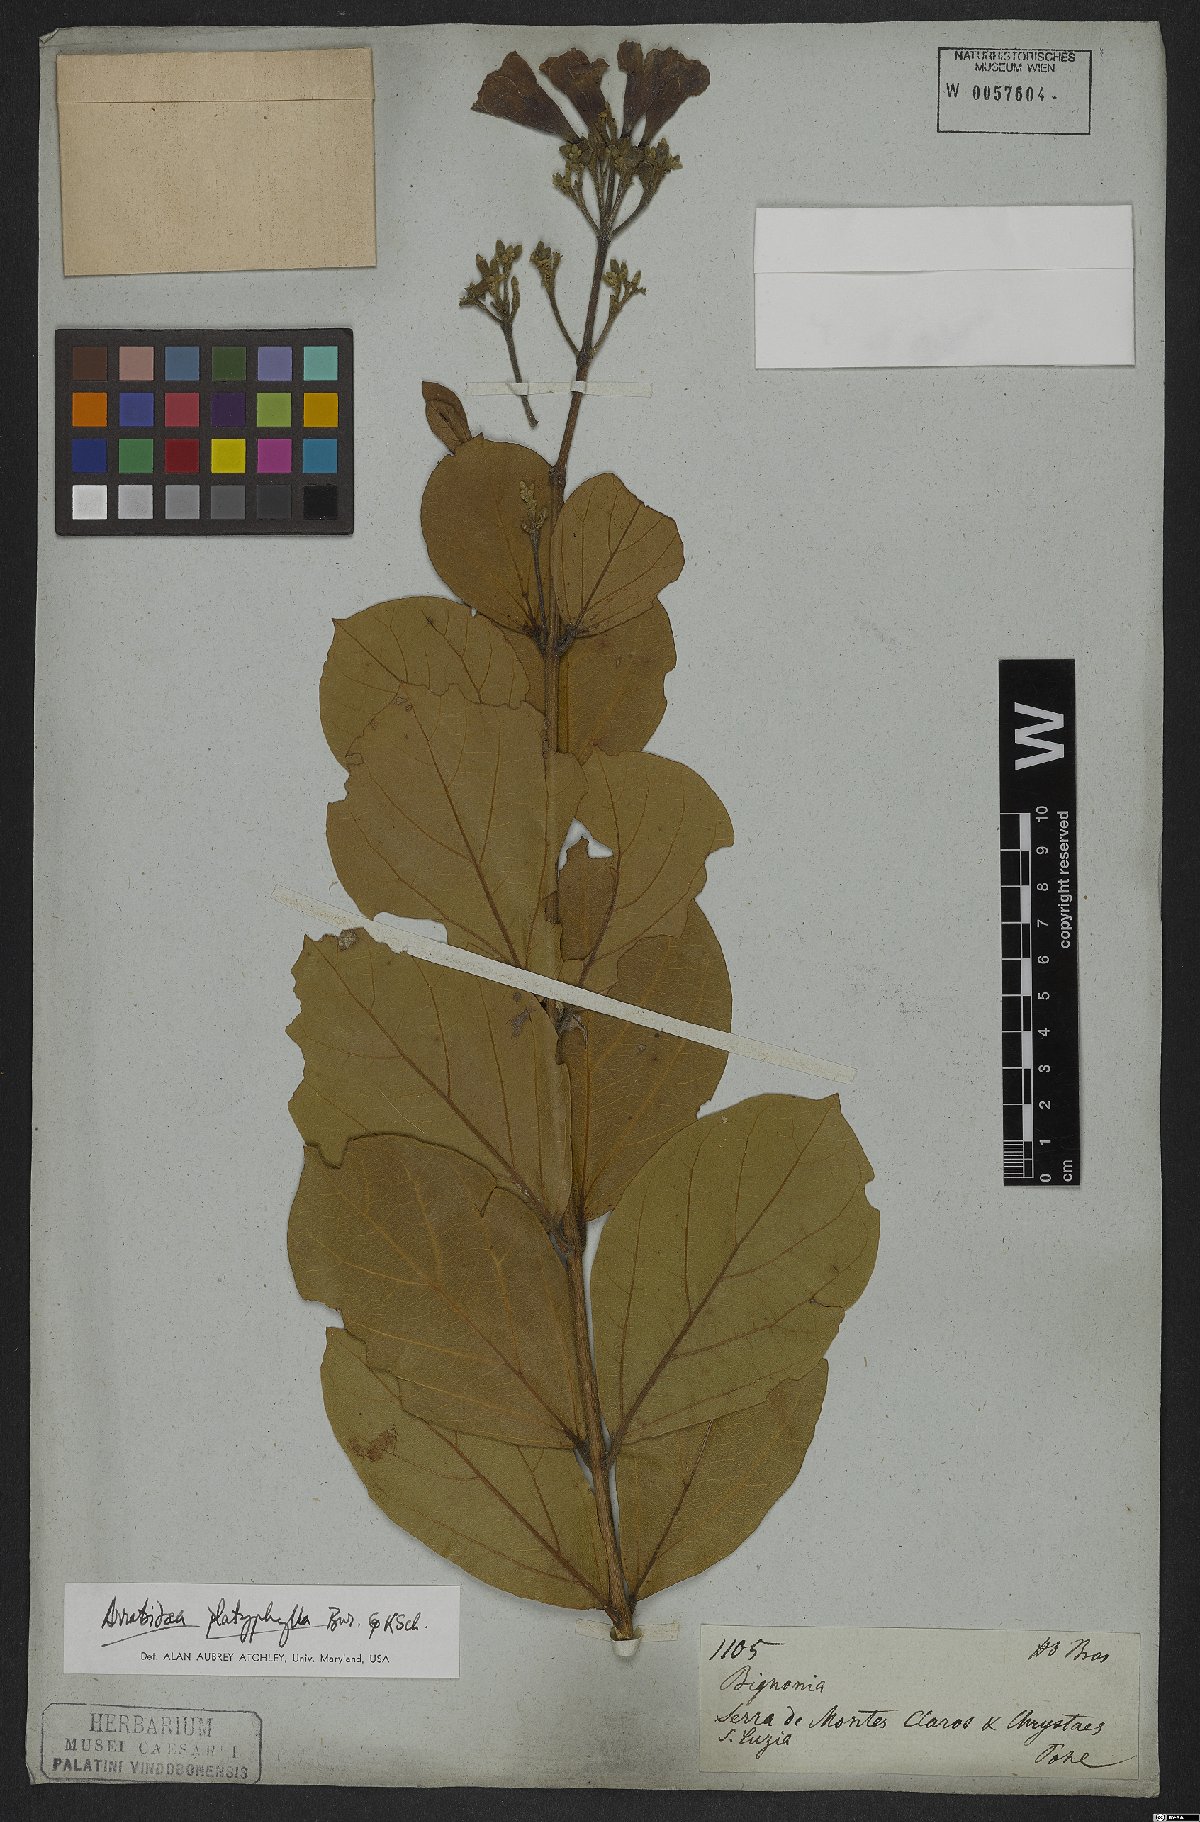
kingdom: Plantae
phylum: Tracheophyta
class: Magnoliopsida
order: Lamiales
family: Bignoniaceae
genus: Xylophragma
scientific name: Xylophragma platyphyllum
